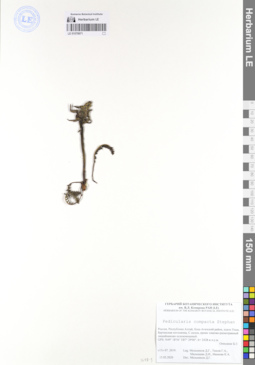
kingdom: Plantae
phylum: Tracheophyta
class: Magnoliopsida
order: Lamiales
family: Orobanchaceae
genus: Pedicularis
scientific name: Pedicularis compacta
